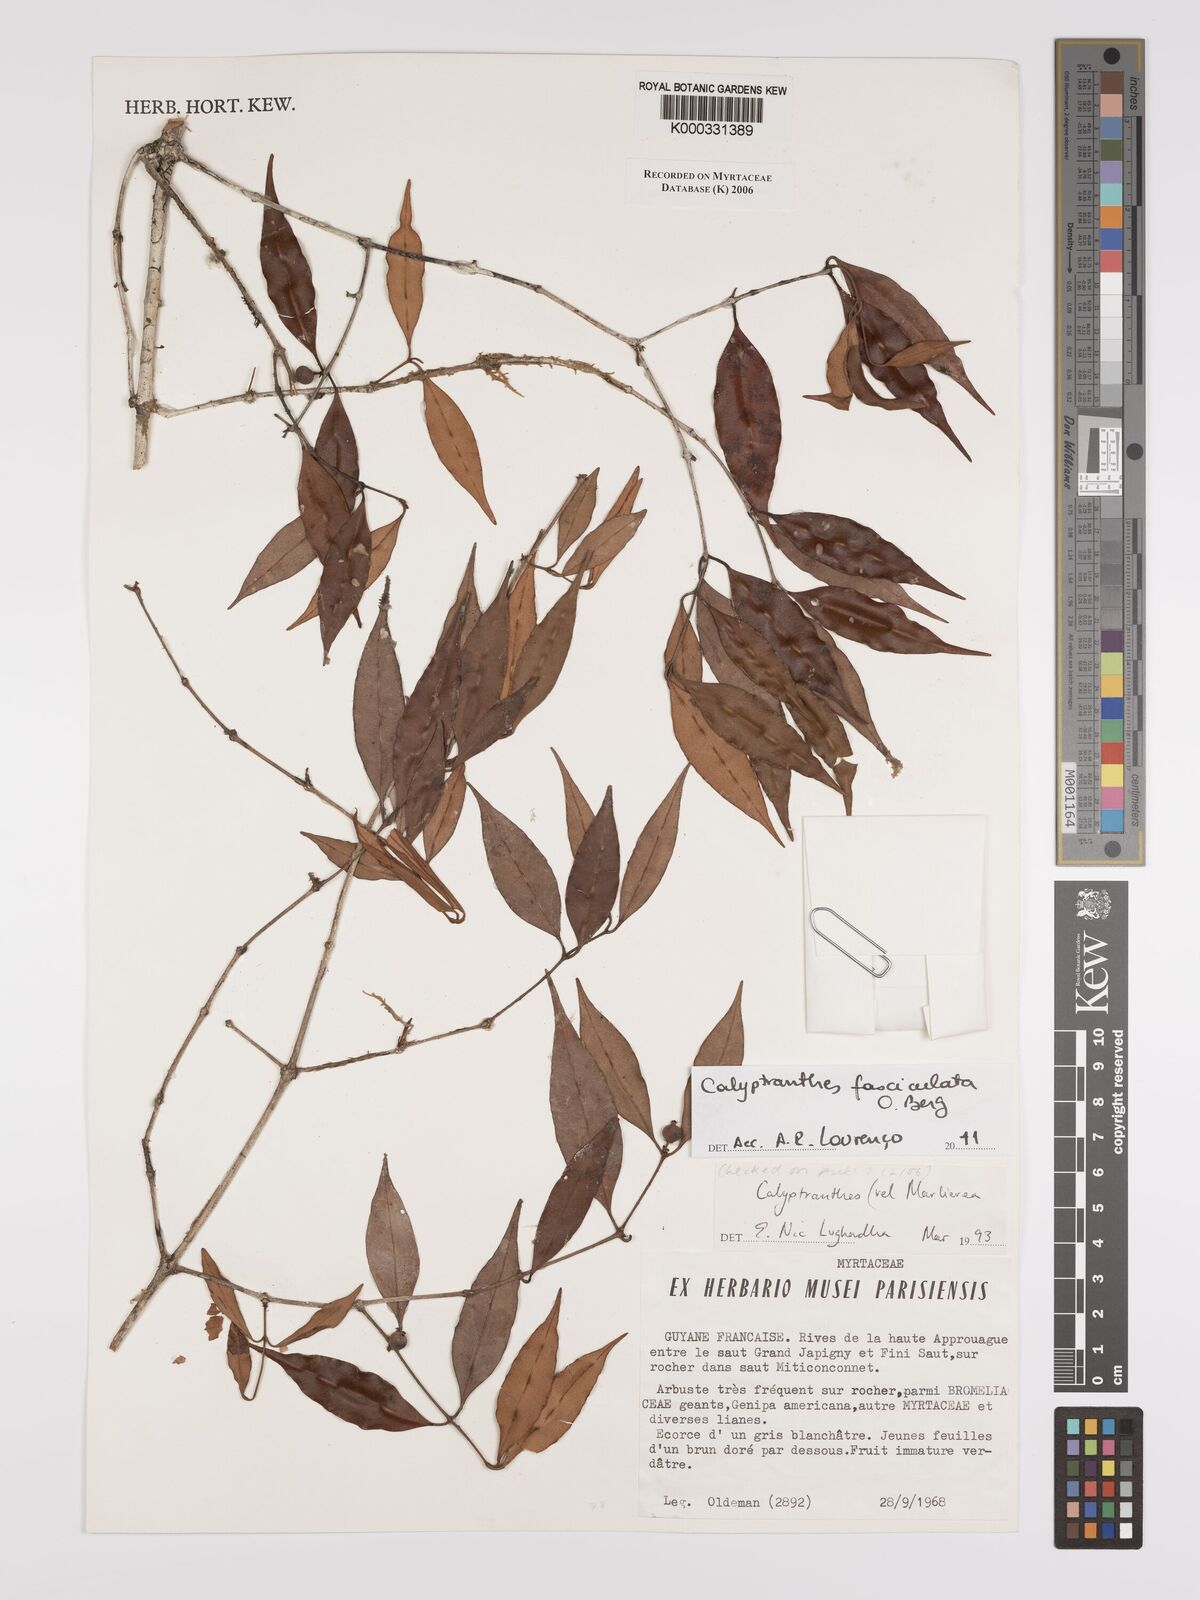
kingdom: Plantae
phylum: Tracheophyta
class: Magnoliopsida
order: Myrtales
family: Myrtaceae
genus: Calyptranthes
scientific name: Calyptranthes
